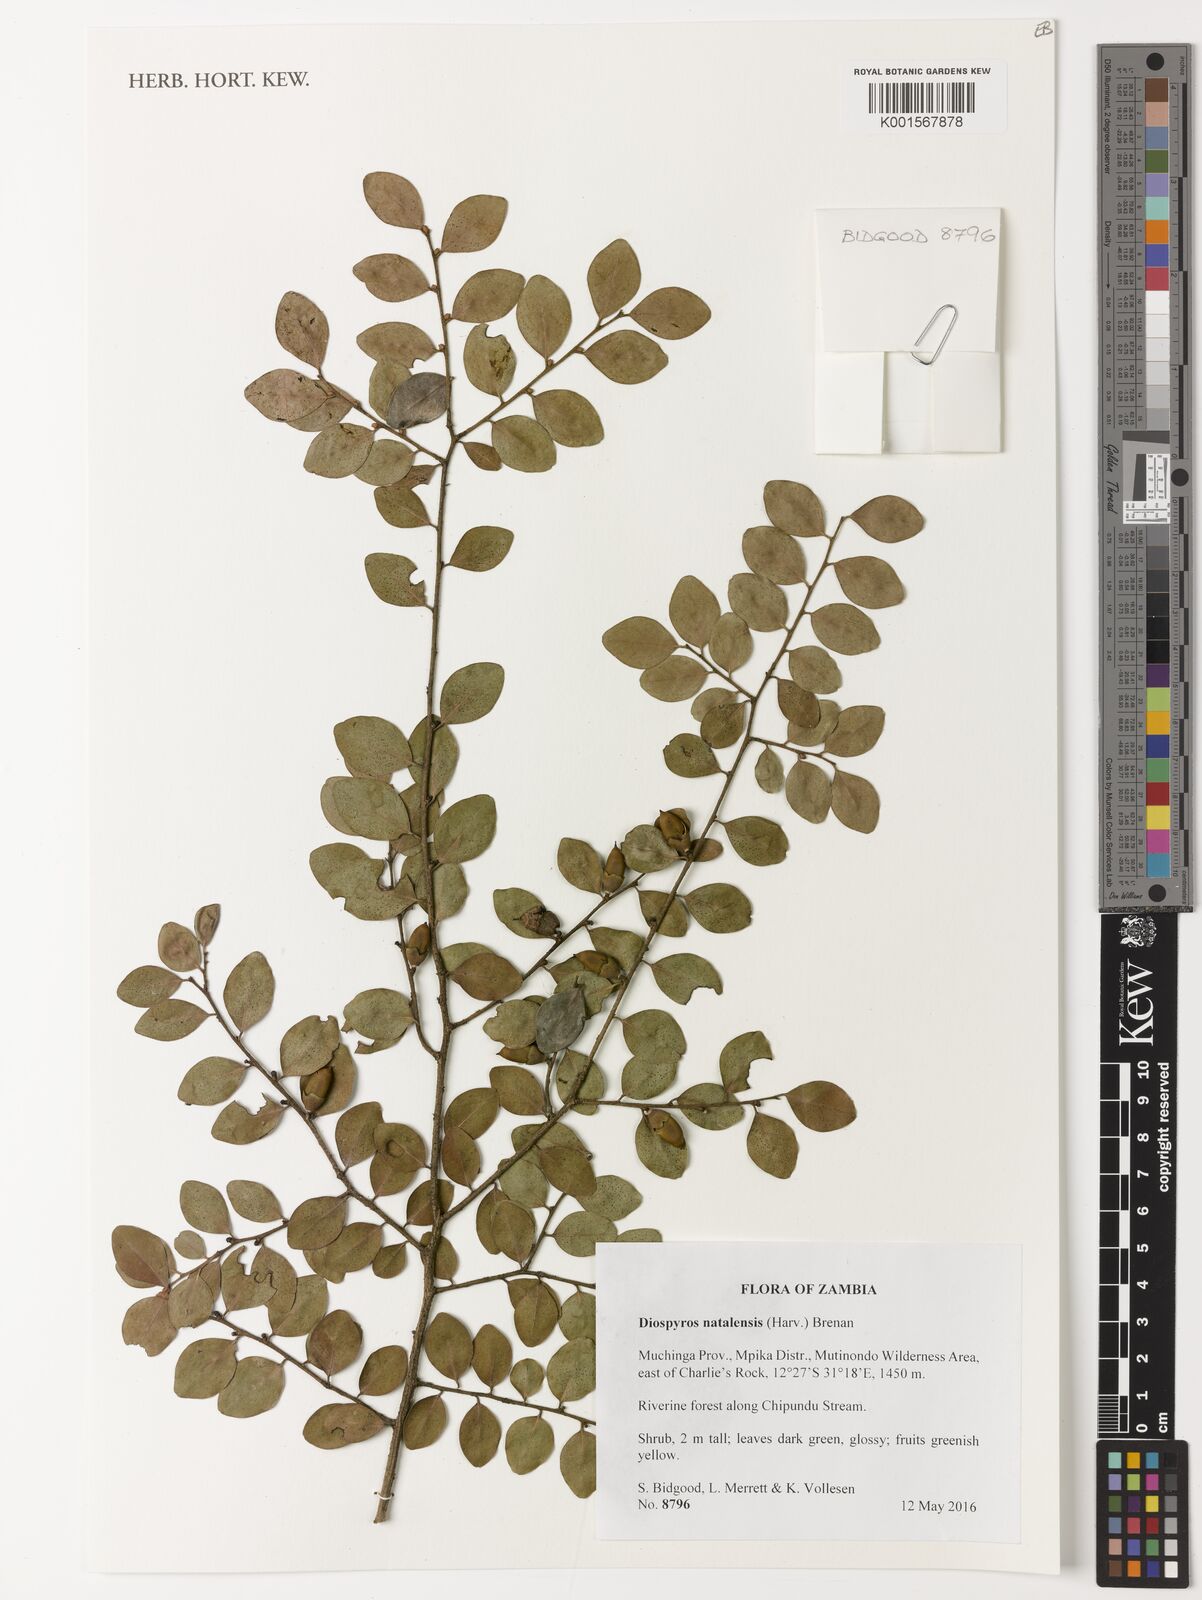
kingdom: Plantae
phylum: Tracheophyta
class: Magnoliopsida
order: Ericales
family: Ebenaceae
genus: Diospyros
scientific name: Diospyros natalensis
